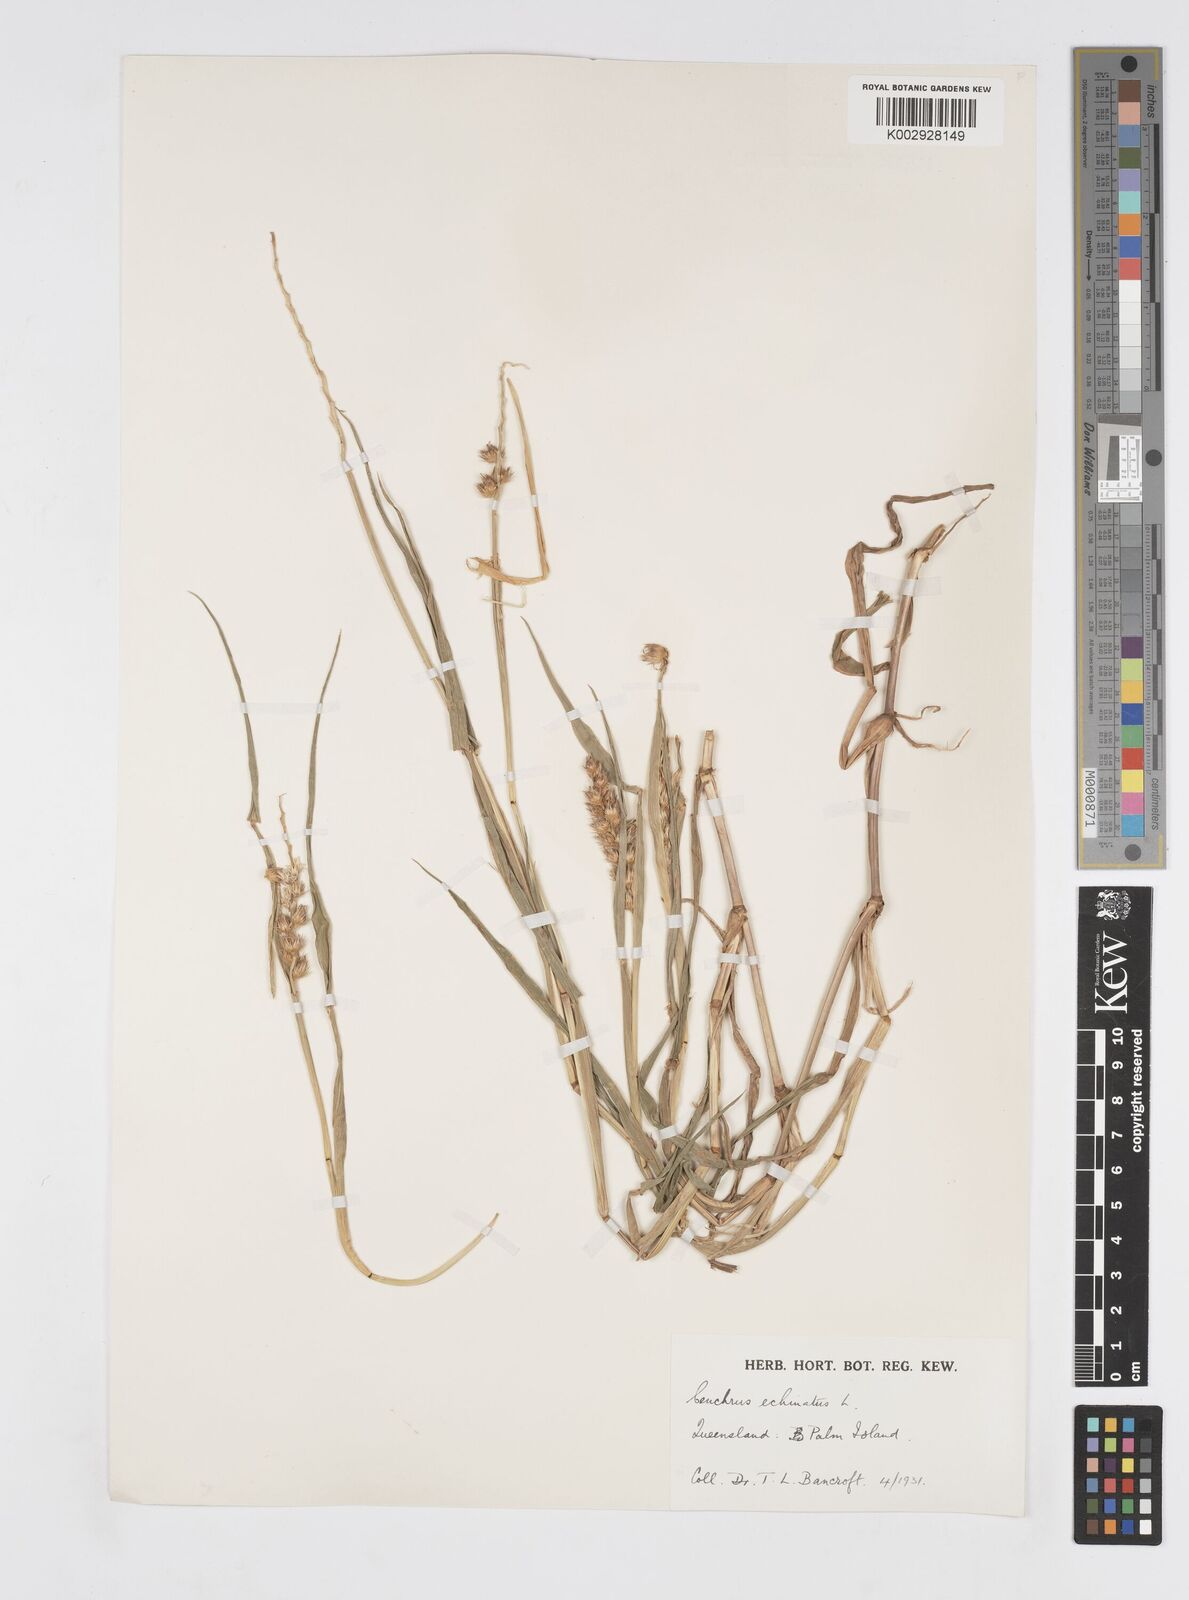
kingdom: Plantae
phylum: Tracheophyta
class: Liliopsida
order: Poales
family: Poaceae
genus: Cenchrus
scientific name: Cenchrus echinatus
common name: Southern sandbur
